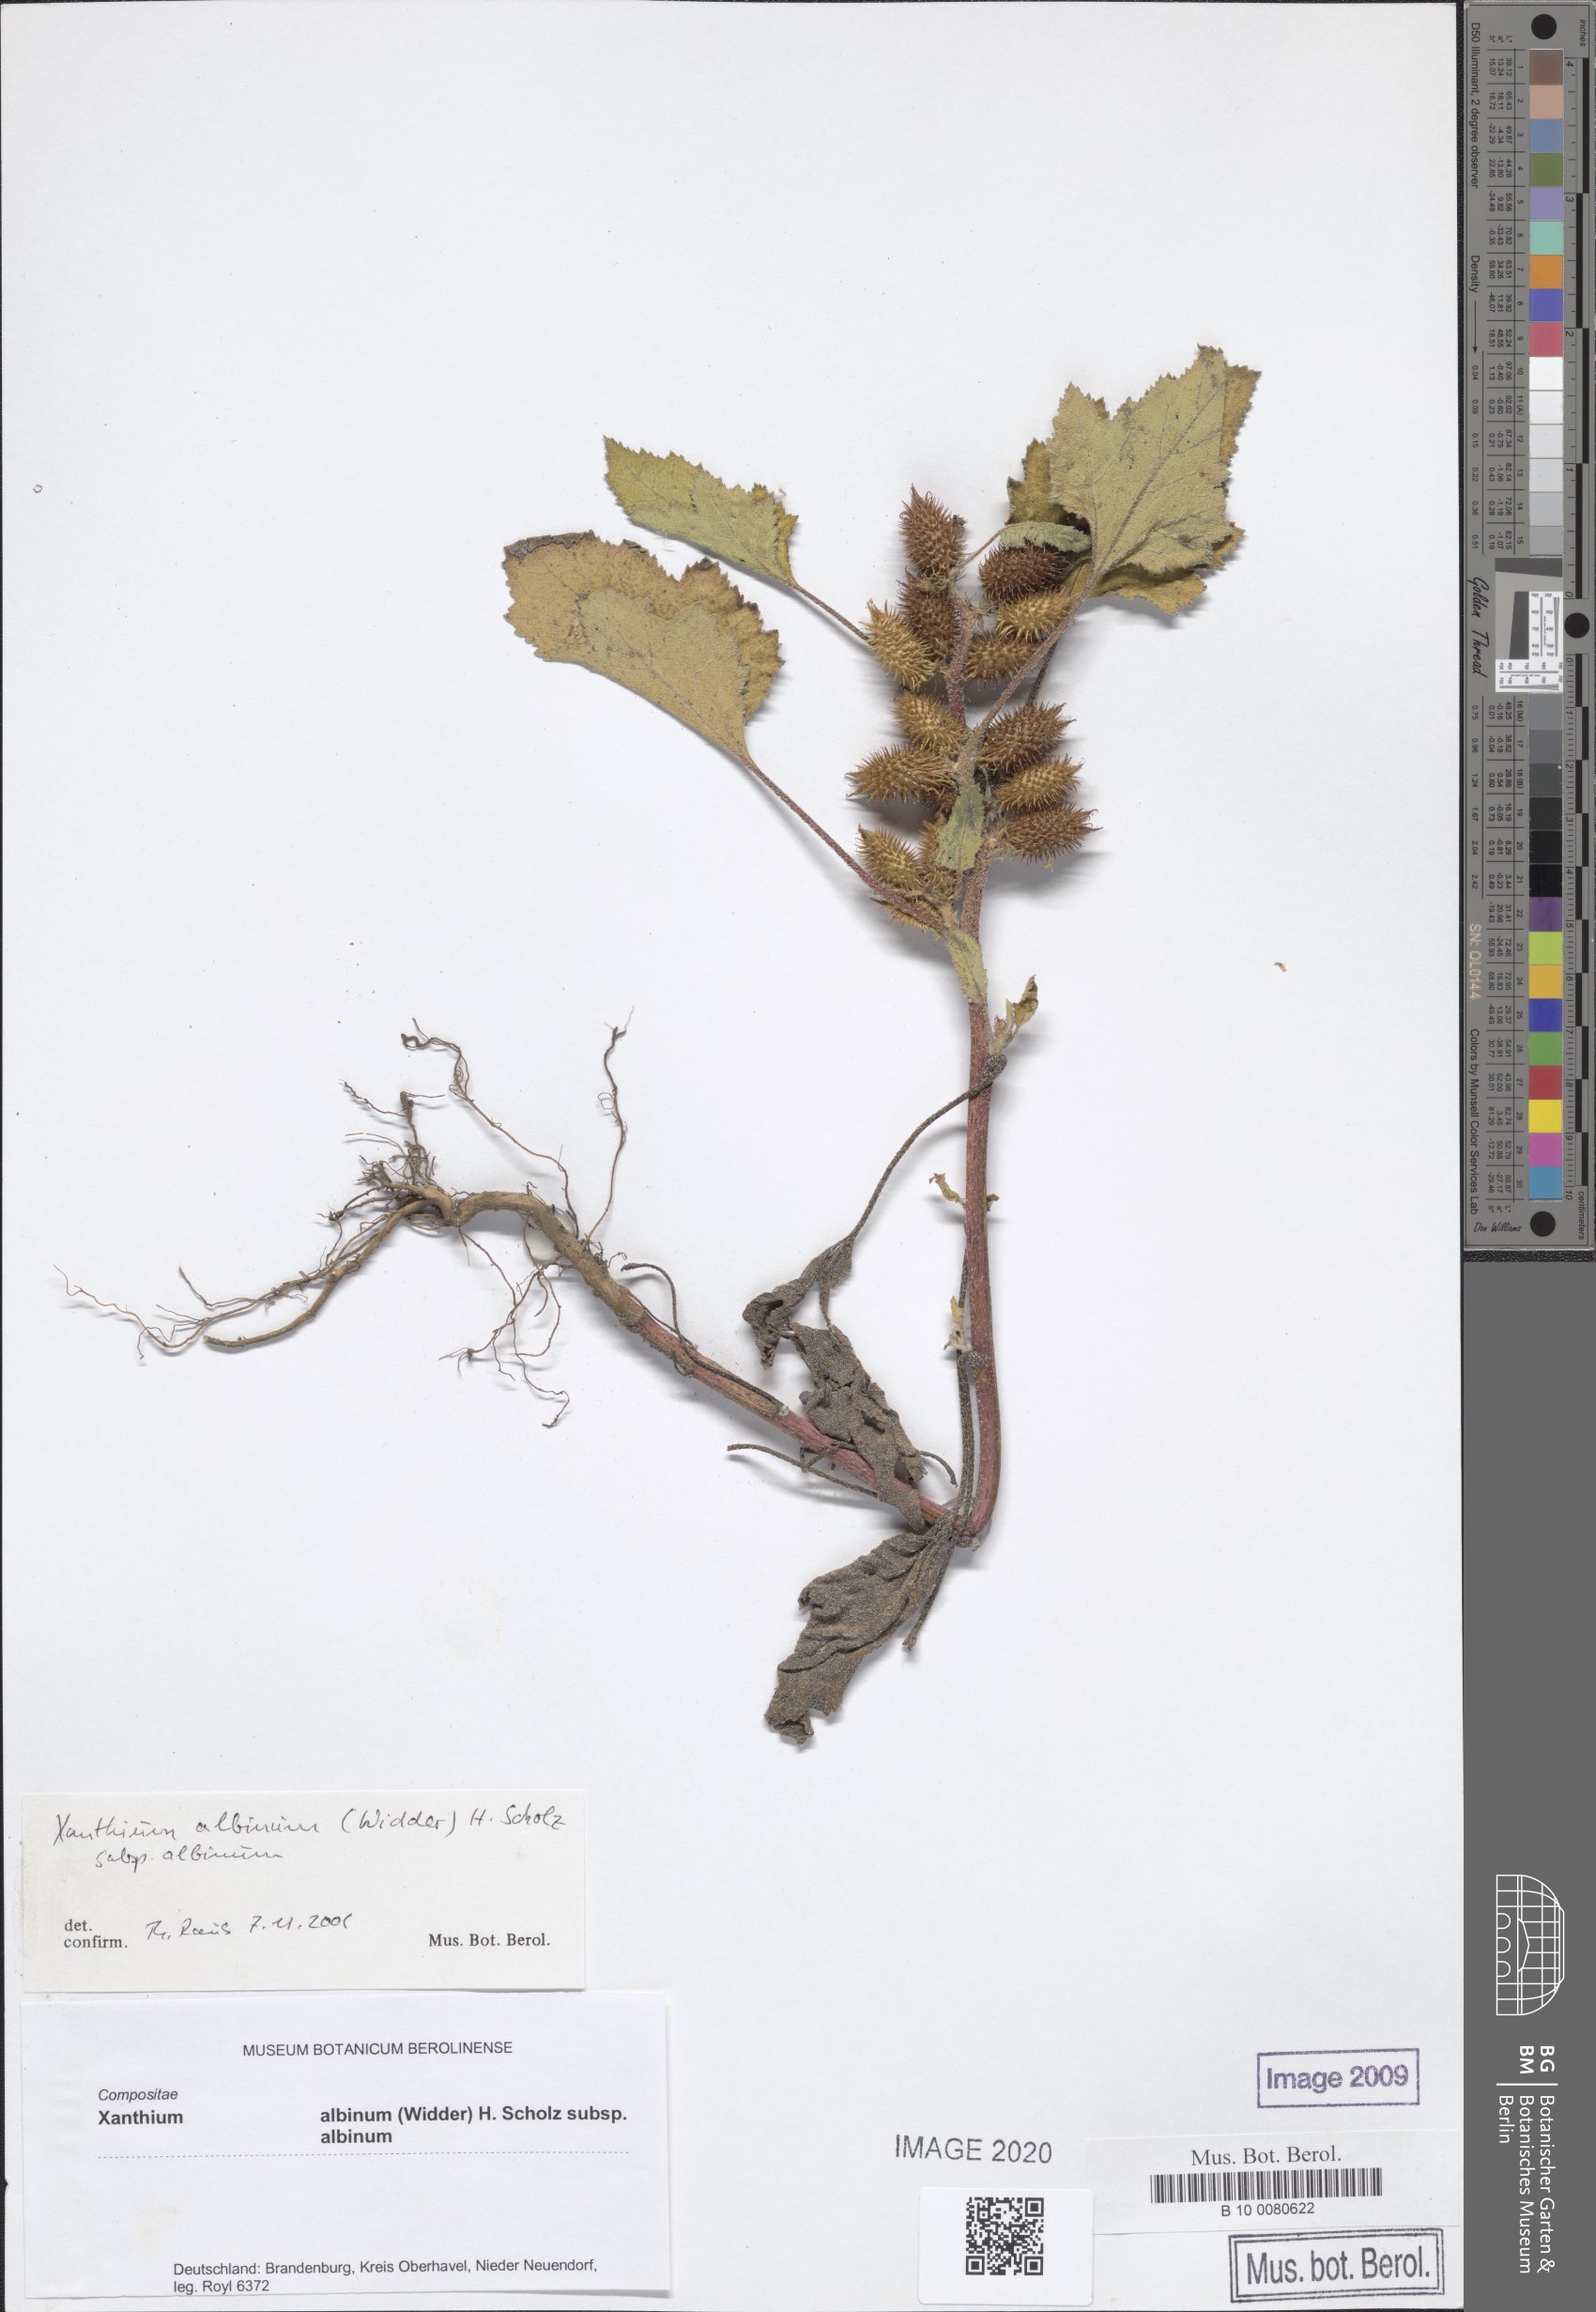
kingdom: Plantae
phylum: Tracheophyta
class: Magnoliopsida
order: Asterales
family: Asteraceae
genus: Xanthium
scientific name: Xanthium orientale
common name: Californian burr
